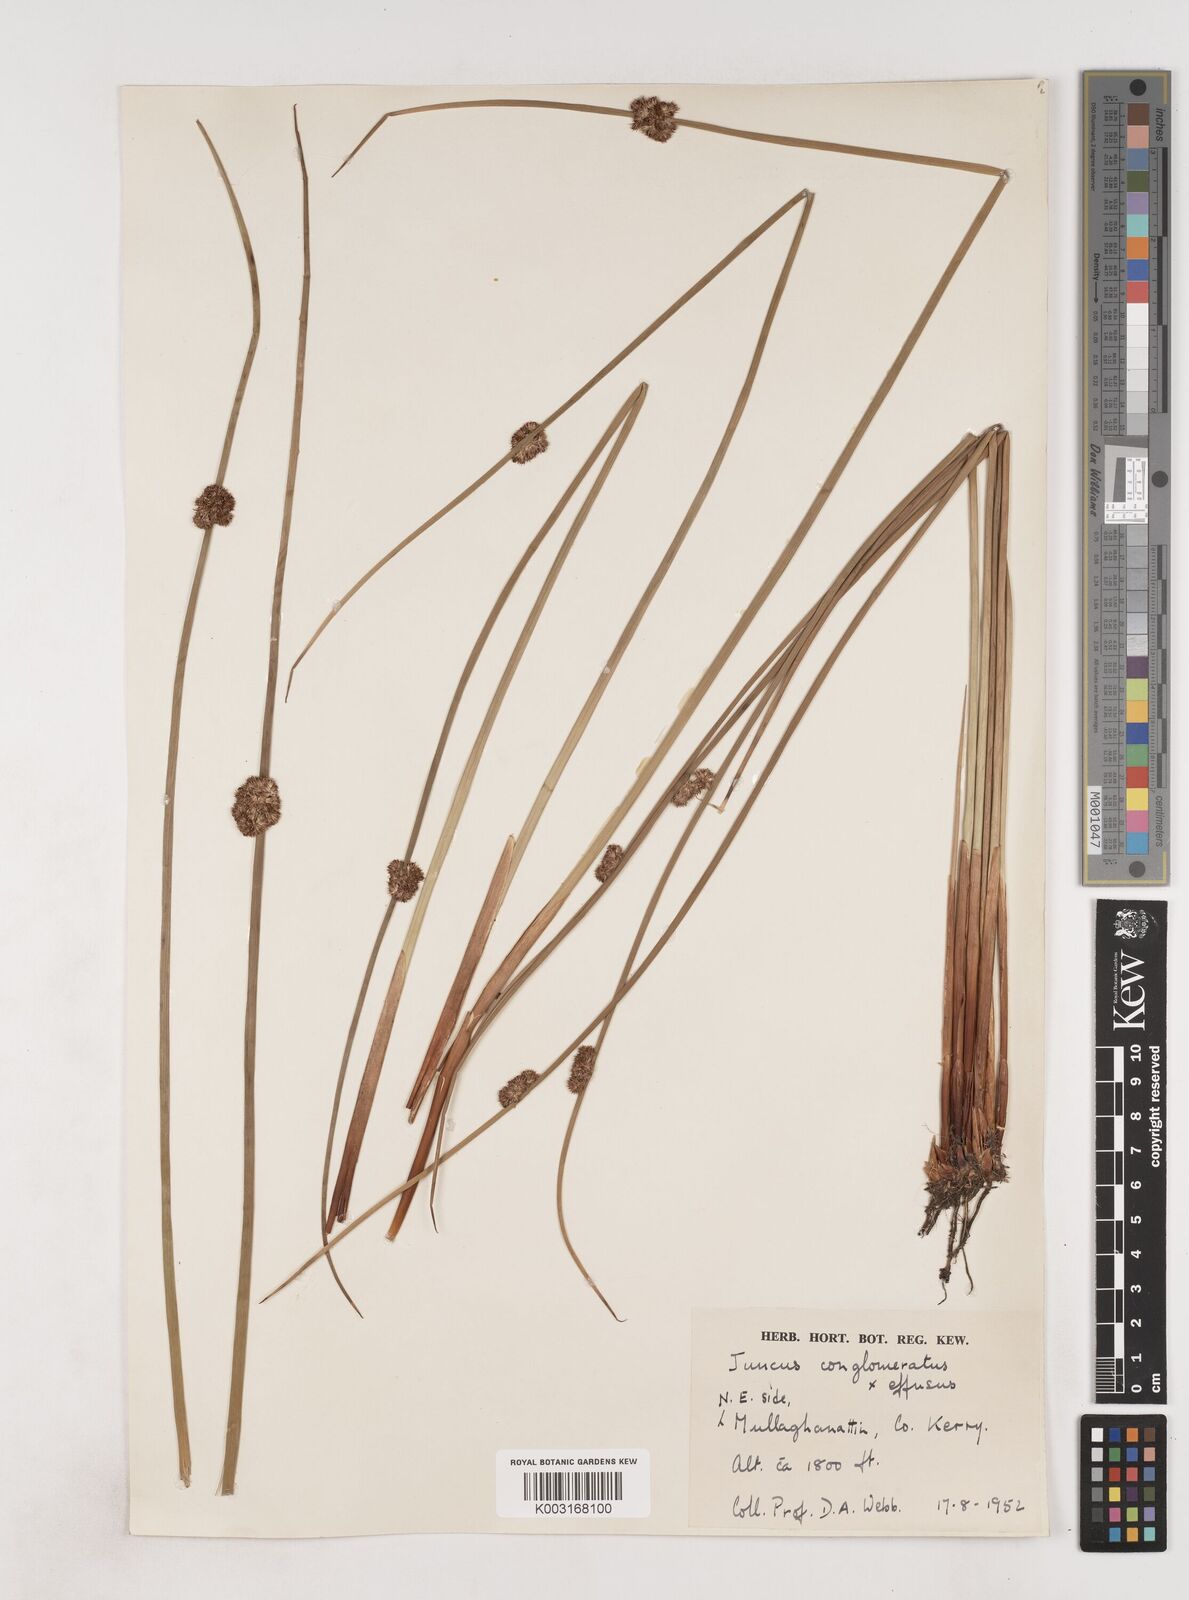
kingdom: Plantae
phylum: Tracheophyta
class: Liliopsida
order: Poales
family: Juncaceae
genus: Juncus
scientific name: Juncus conglomeratus
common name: Compact rush
